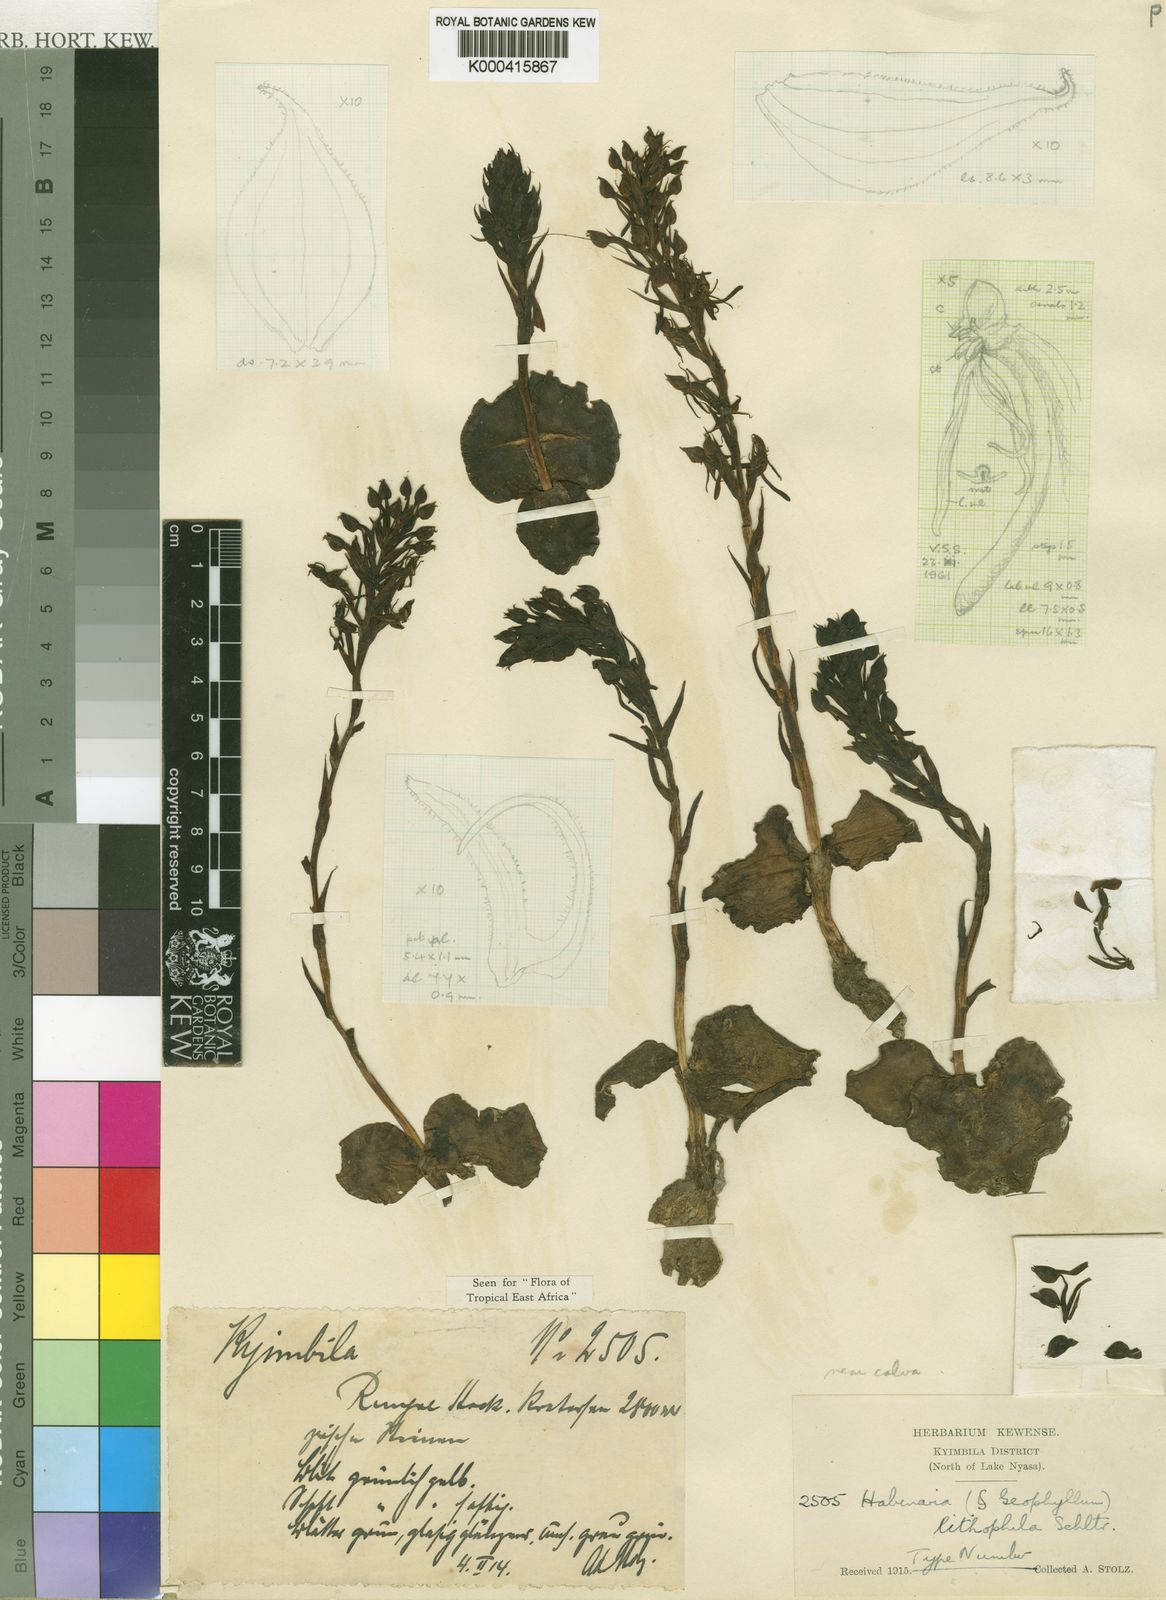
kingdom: Plantae
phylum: Tracheophyta
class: Liliopsida
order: Asparagales
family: Orchidaceae
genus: Habenaria
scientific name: Habenaria lithophila
